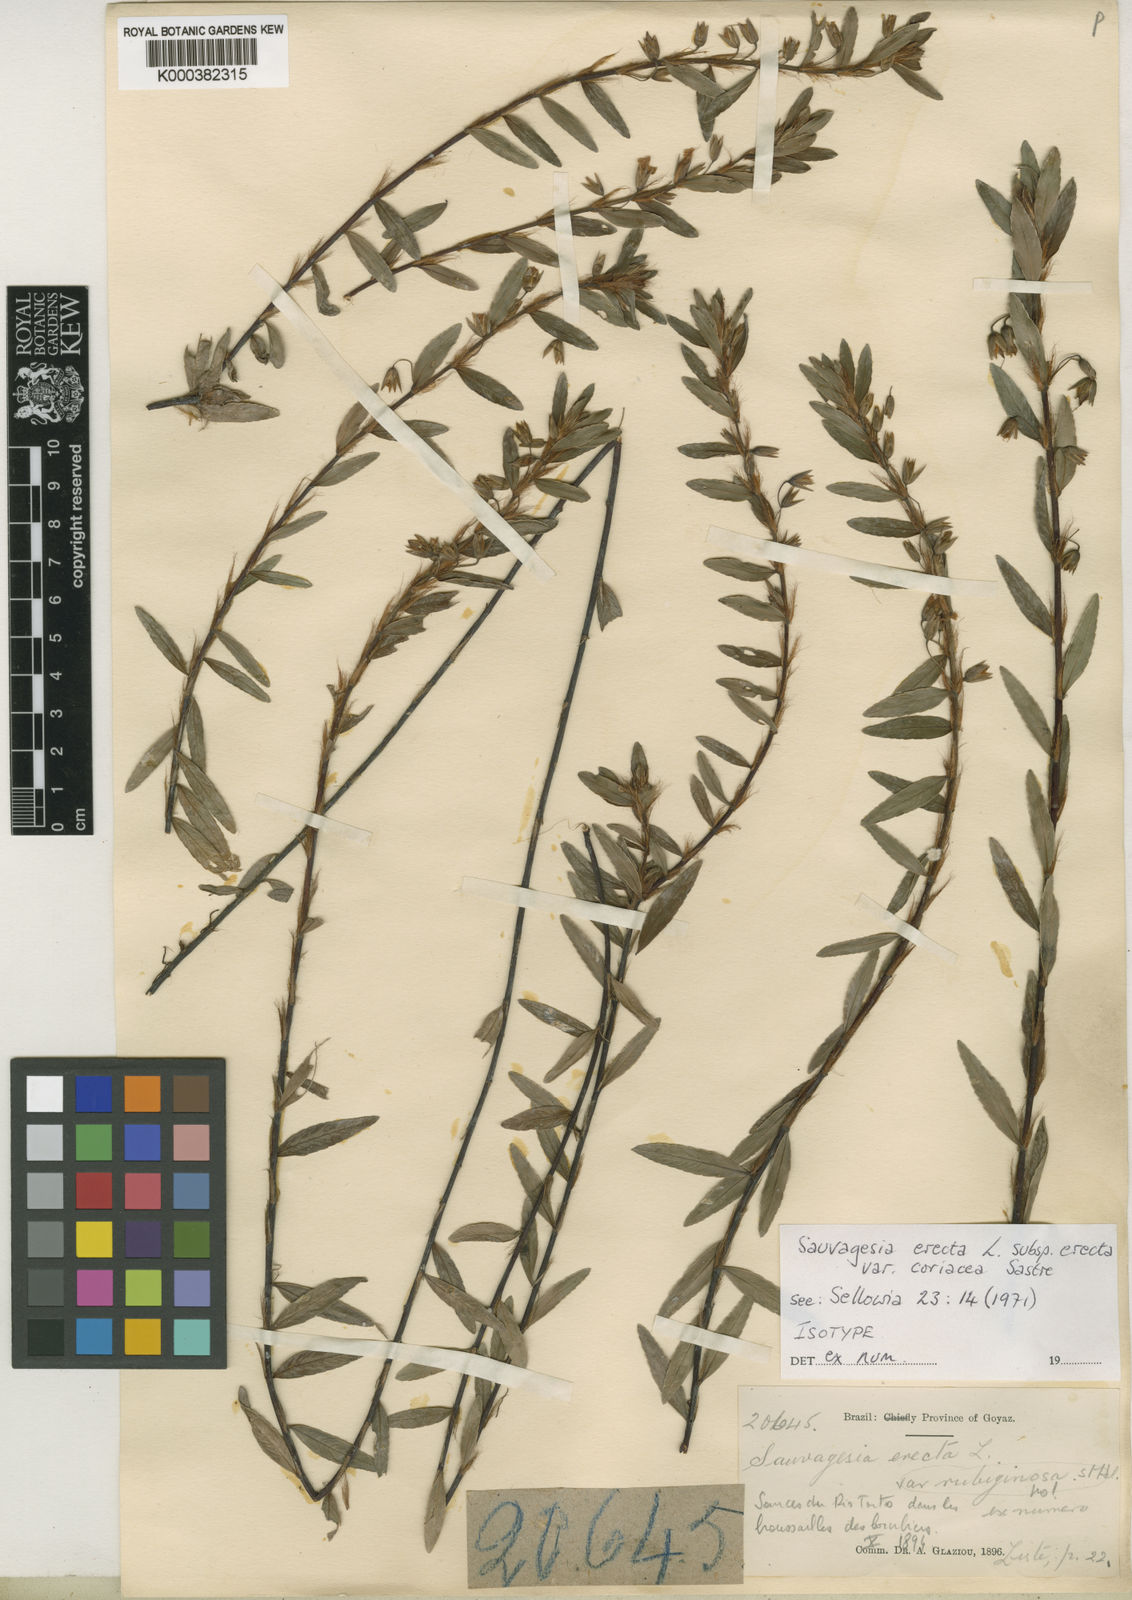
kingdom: Plantae
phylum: Tracheophyta
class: Magnoliopsida
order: Malpighiales
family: Ochnaceae
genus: Sauvagesia
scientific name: Sauvagesia erecta
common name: Creole tea
